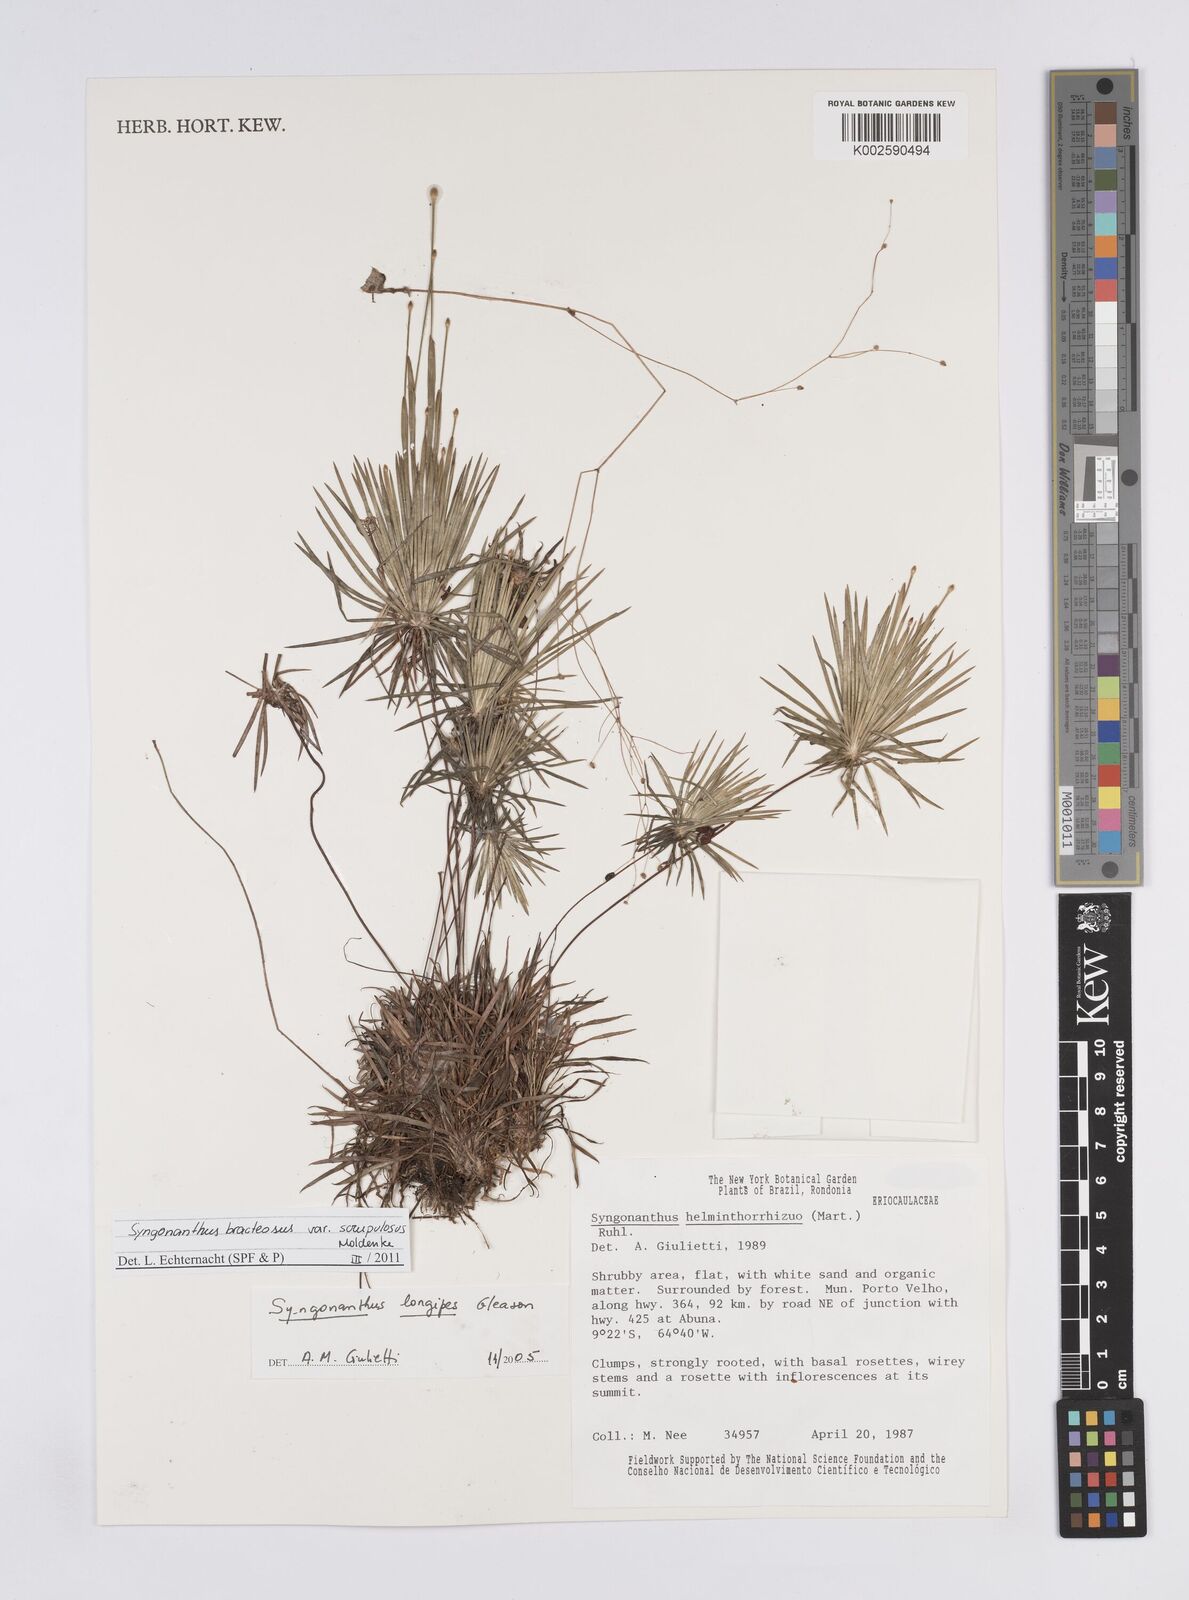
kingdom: Plantae
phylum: Tracheophyta
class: Liliopsida
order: Poales
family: Eriocaulaceae
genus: Syngonanthus
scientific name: Syngonanthus bracteosus
